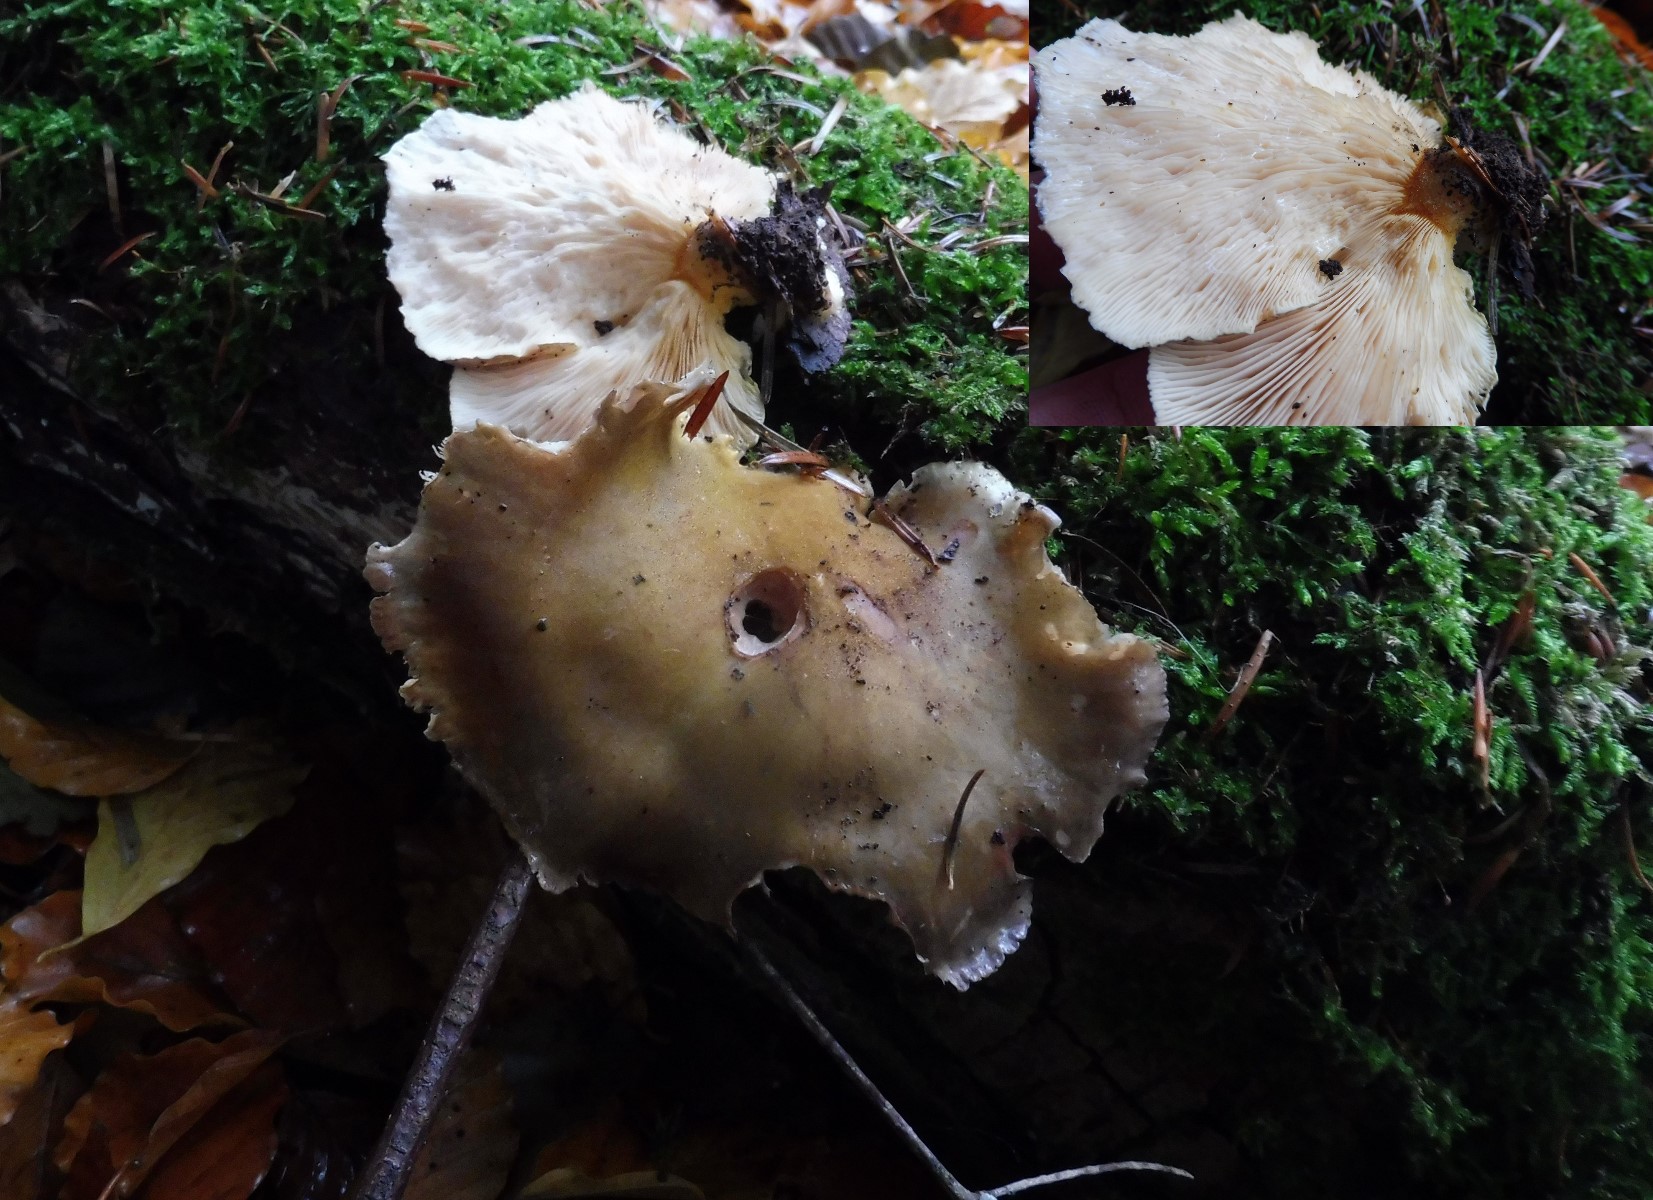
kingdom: Fungi
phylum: Basidiomycota
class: Agaricomycetes
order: Agaricales
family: Sarcomyxaceae
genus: Sarcomyxa
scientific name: Sarcomyxa serotina
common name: gummihat
